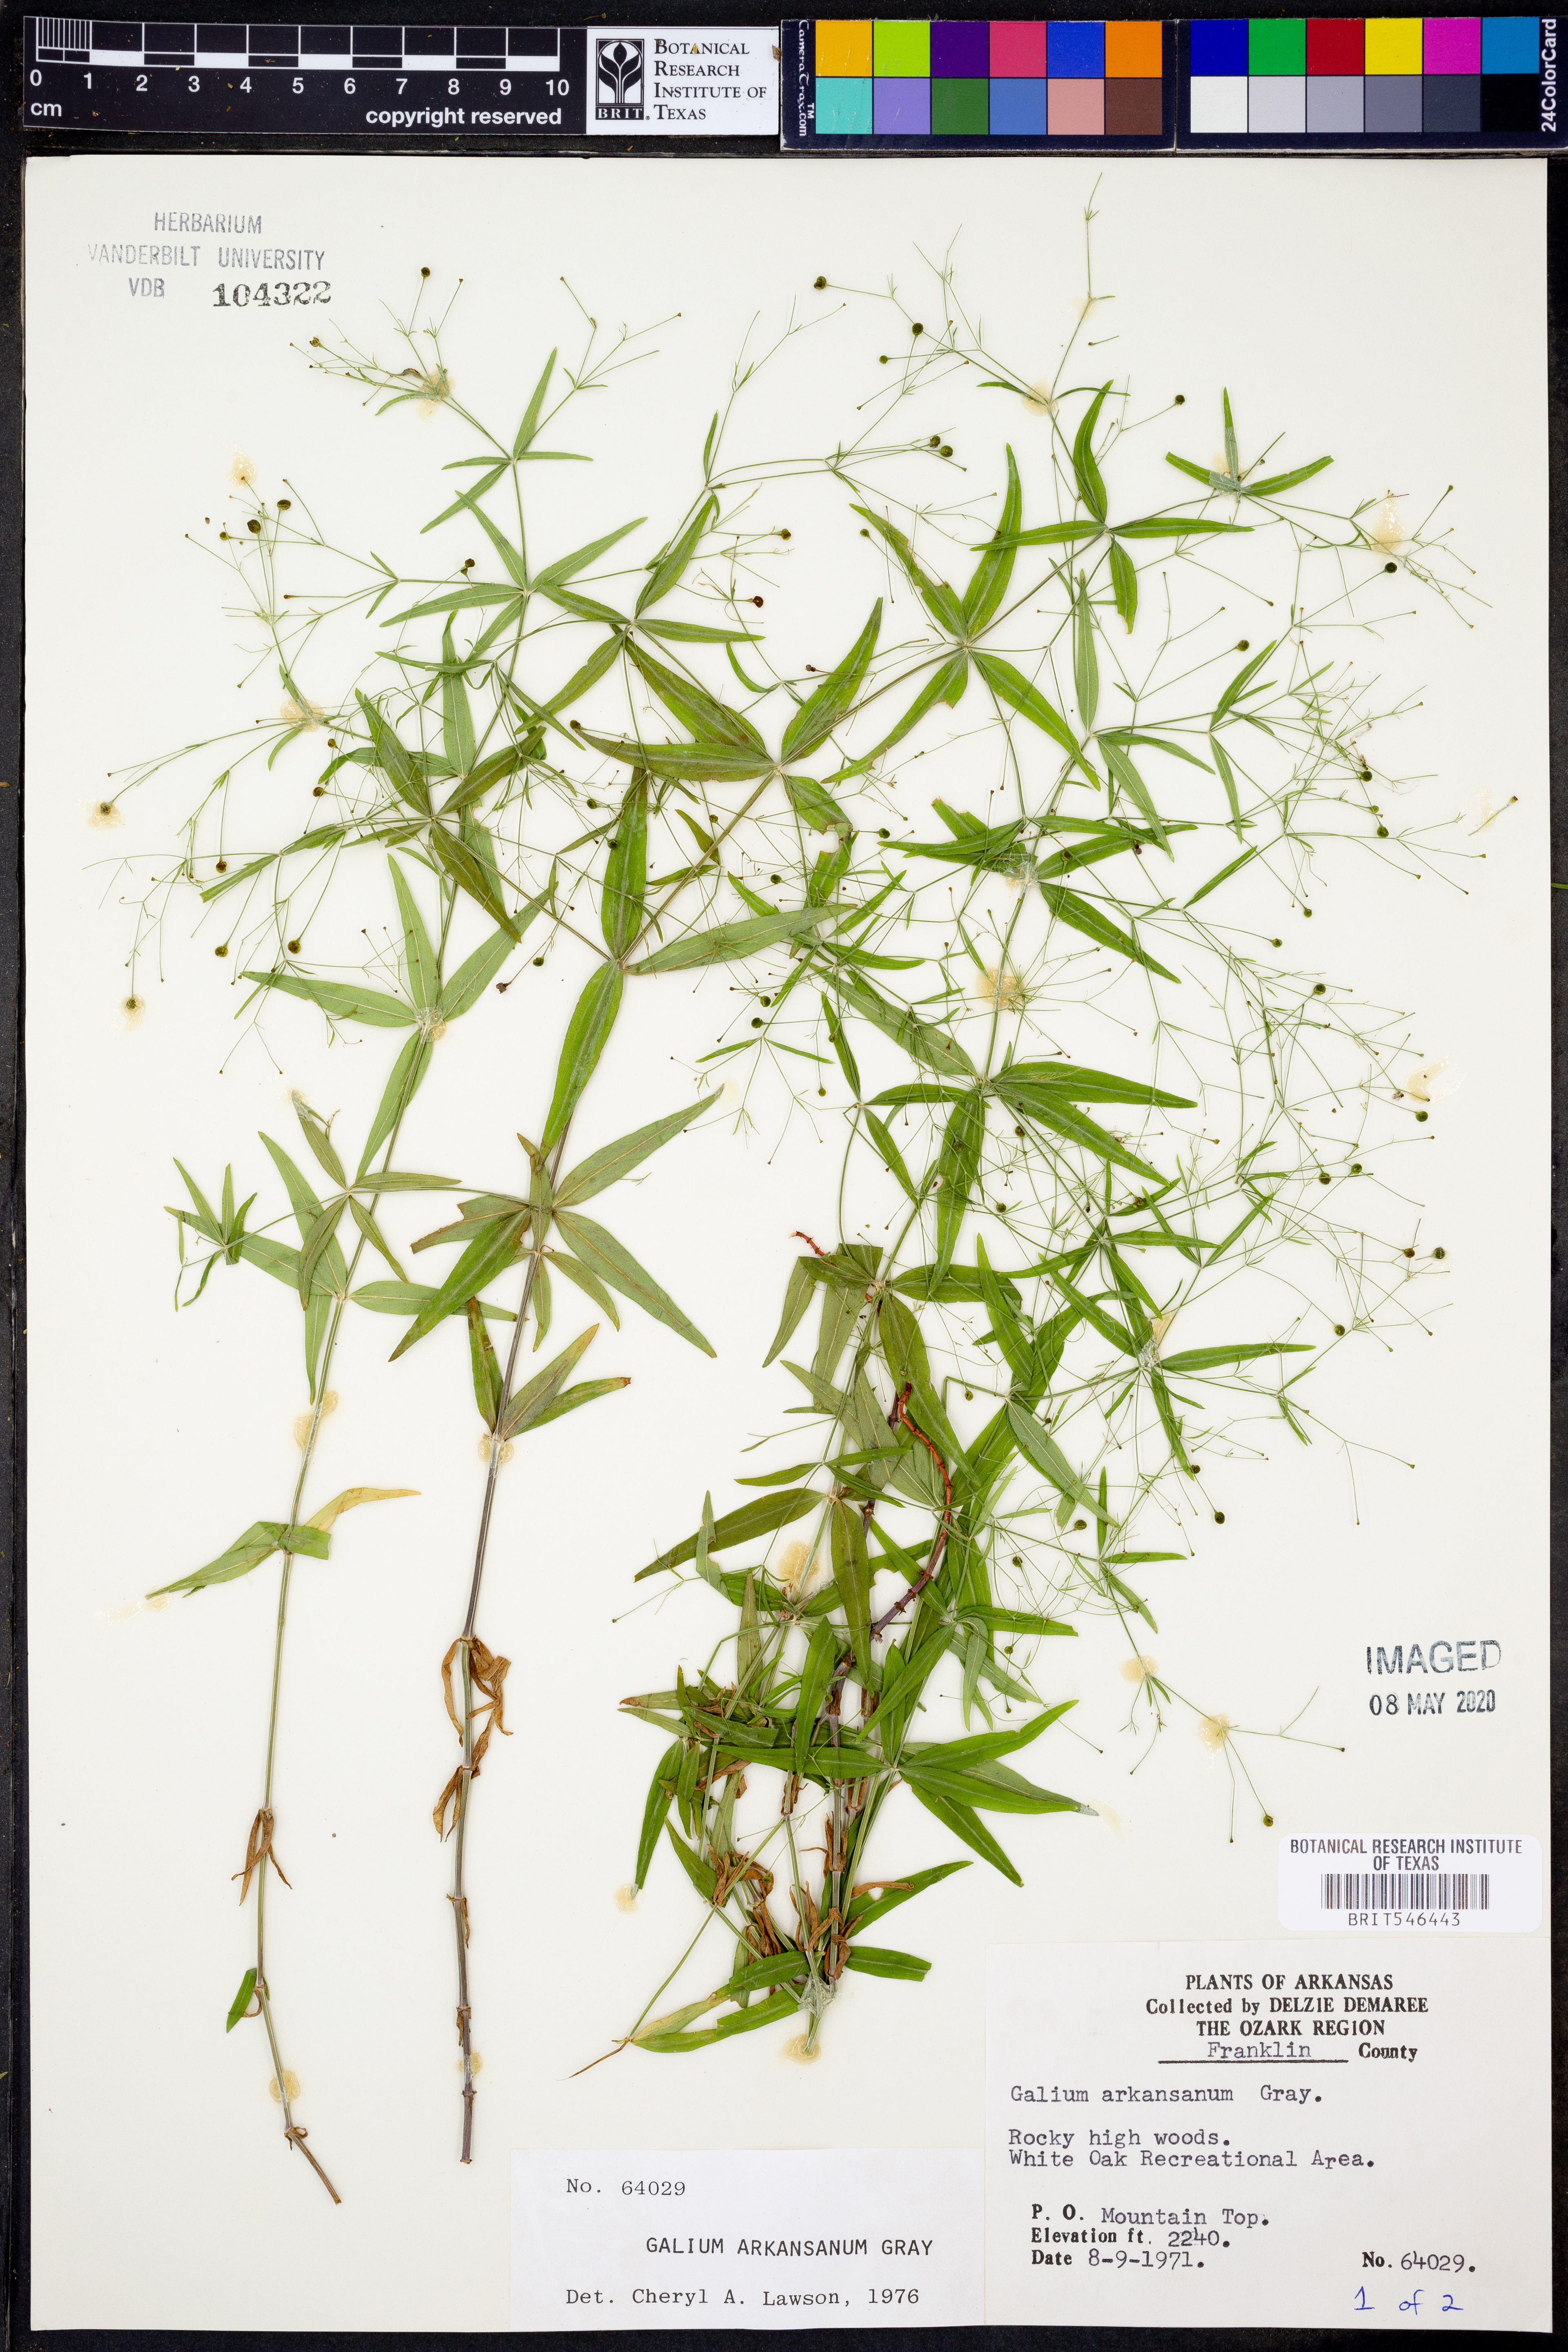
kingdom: Plantae
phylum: Tracheophyta
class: Magnoliopsida
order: Gentianales
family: Rubiaceae
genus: Galium
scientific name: Galium arkansanum
